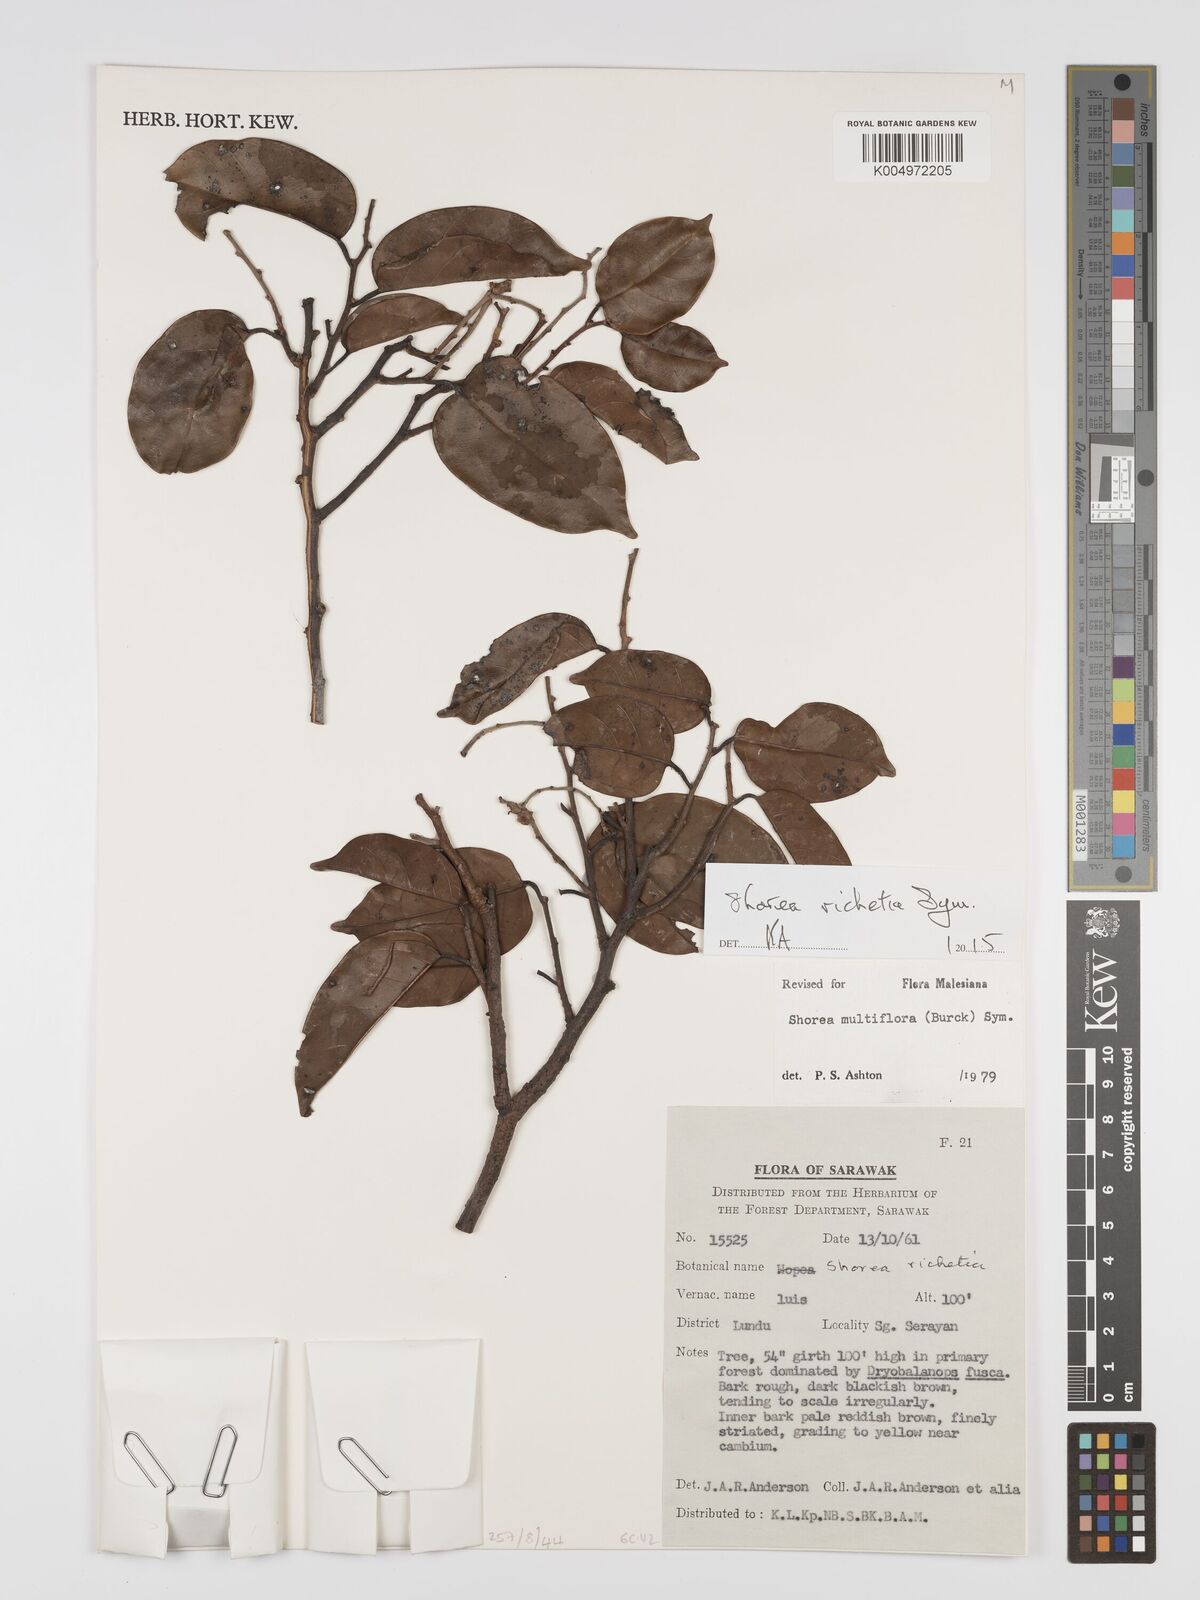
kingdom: Plantae
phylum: Tracheophyta
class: Magnoliopsida
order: Malvales
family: Dipterocarpaceae
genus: Shorea
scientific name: Shorea richetia
